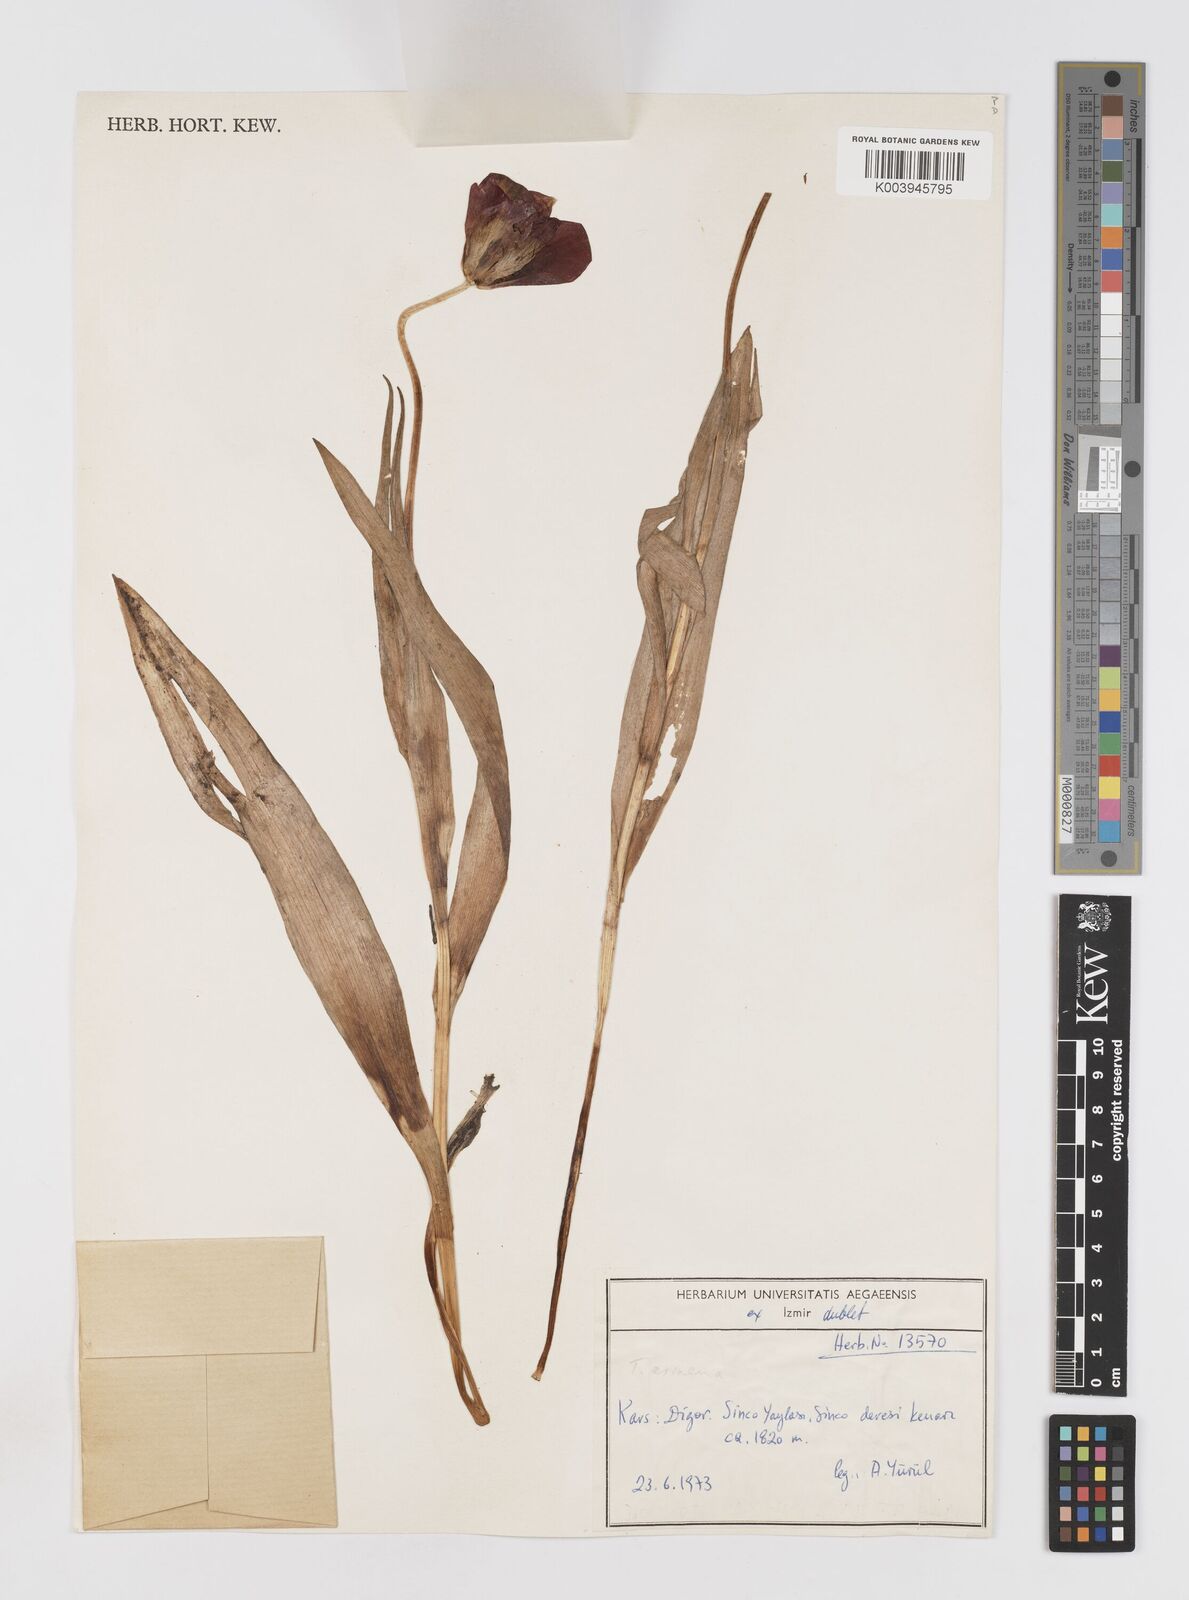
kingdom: Plantae
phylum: Tracheophyta
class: Liliopsida
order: Liliales
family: Liliaceae
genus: Tulipa
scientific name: Tulipa armena
